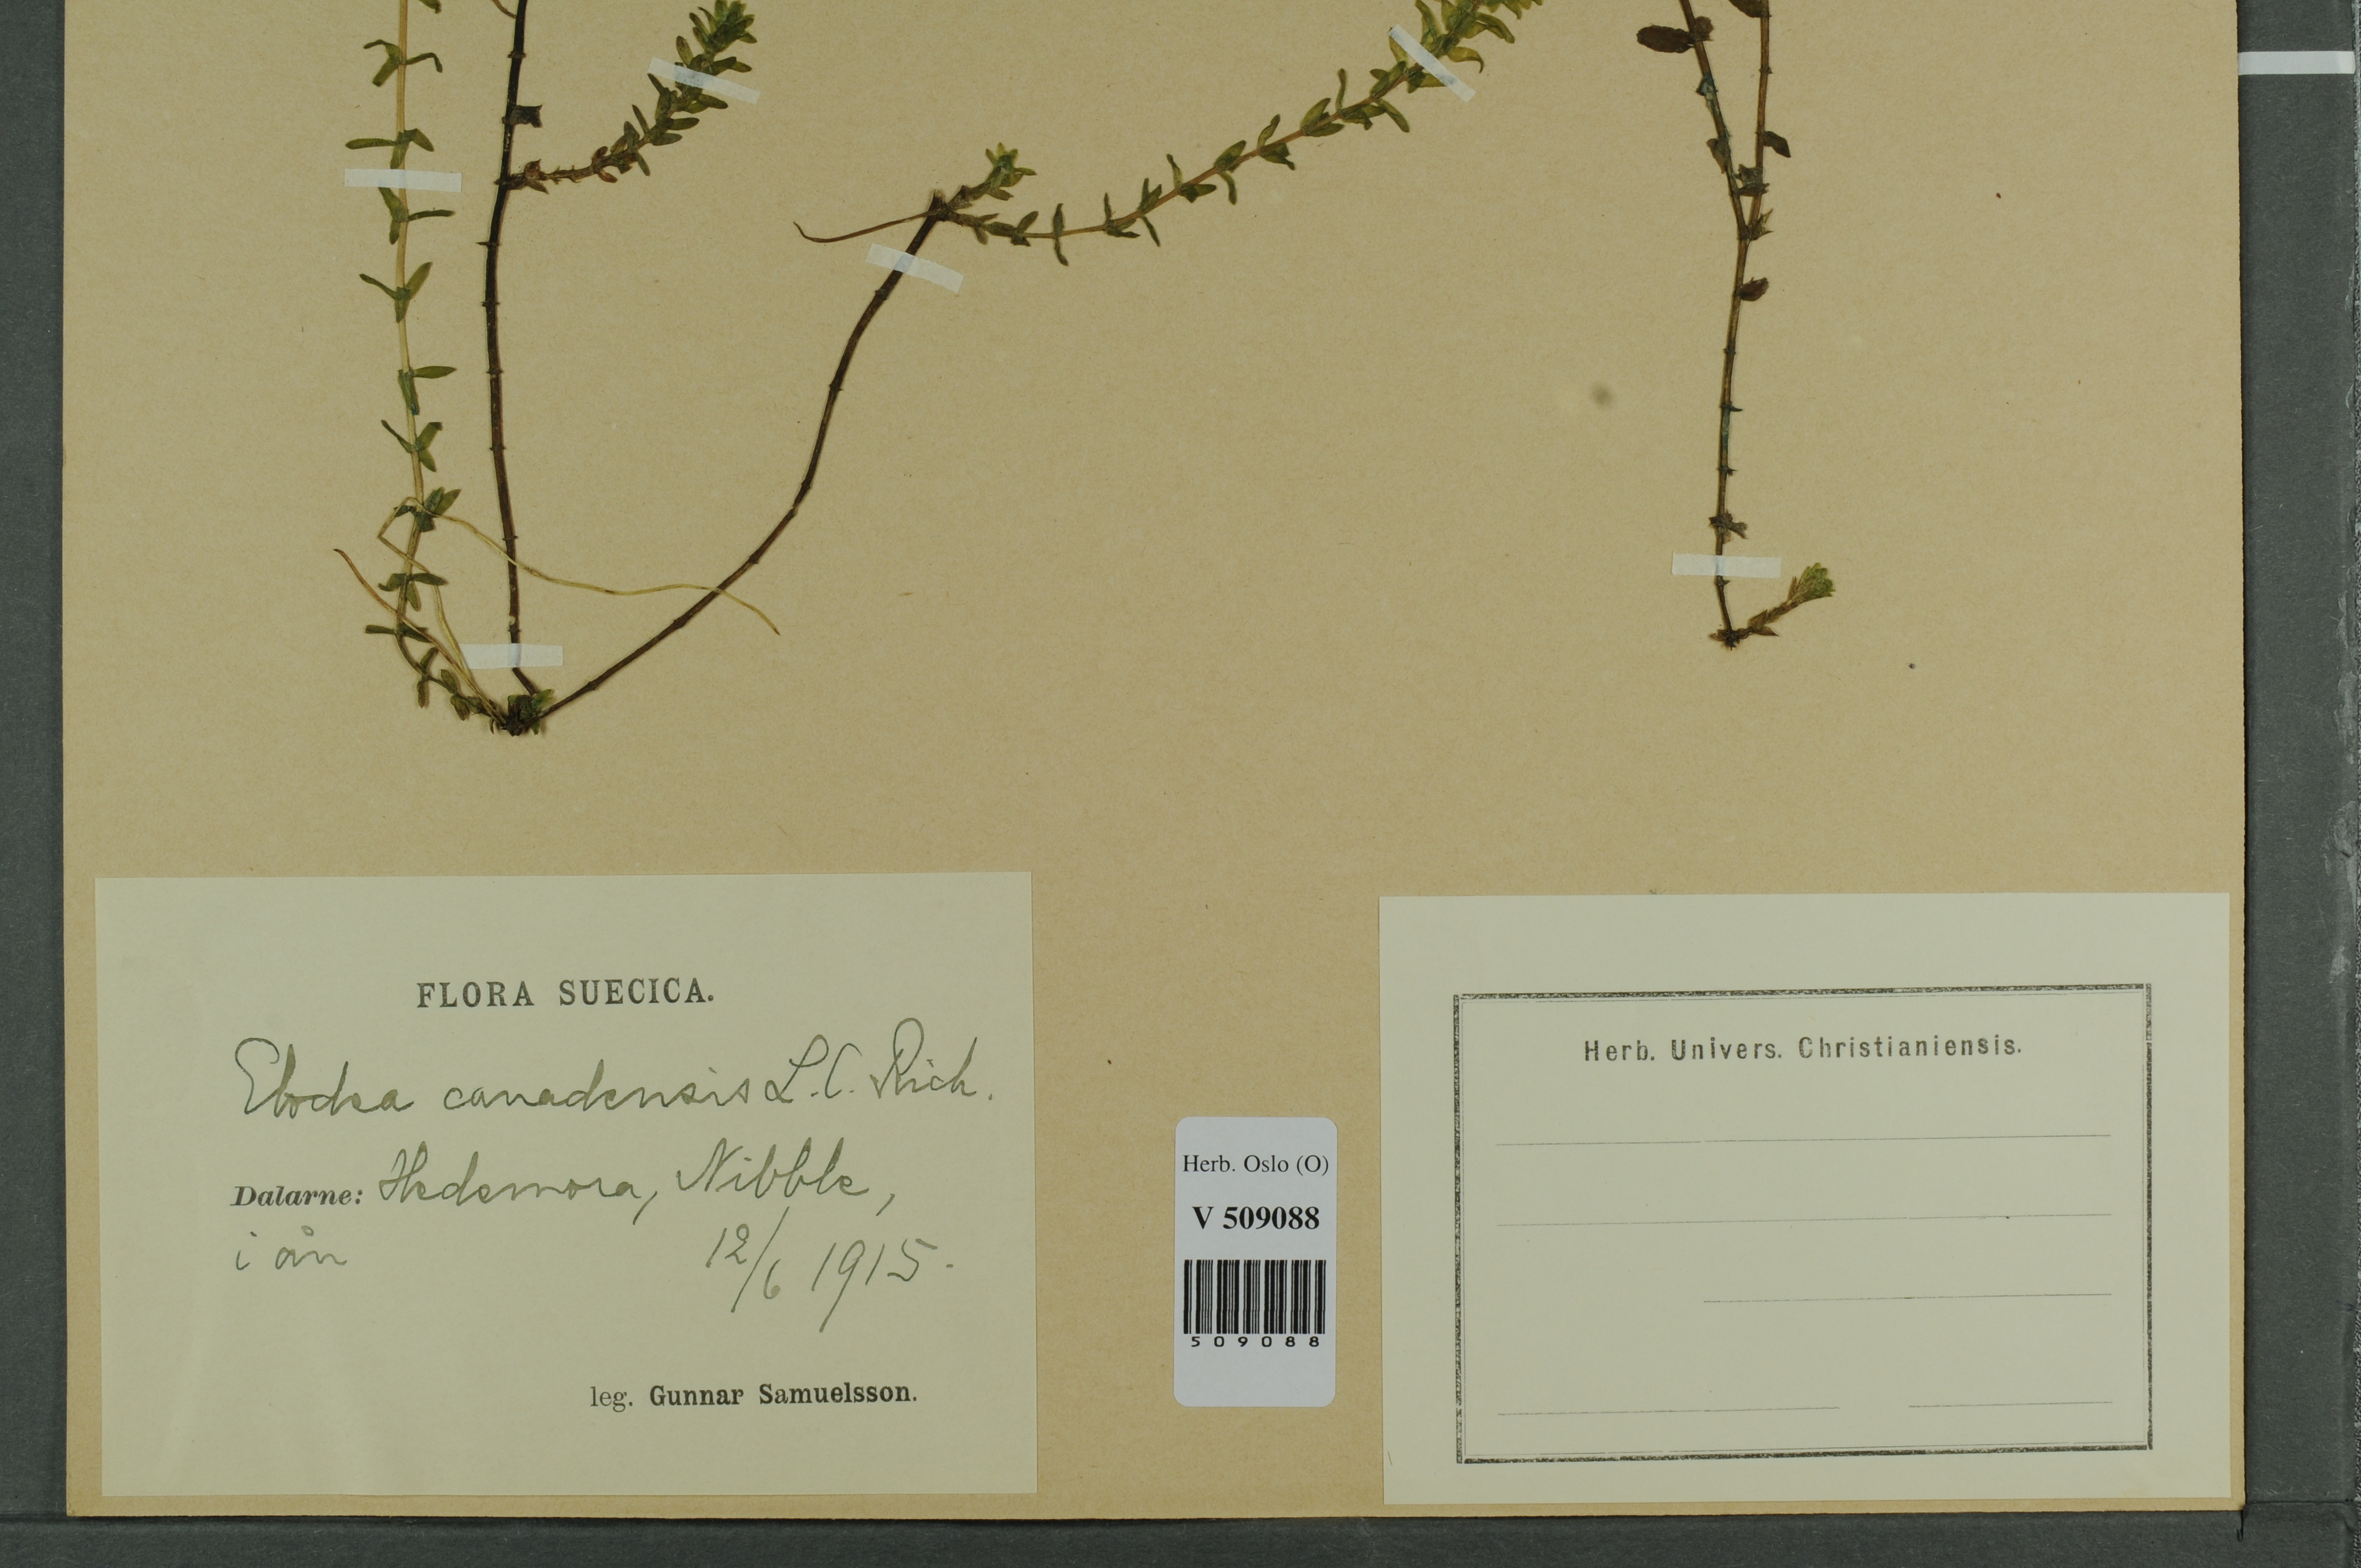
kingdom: Plantae
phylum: Tracheophyta
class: Liliopsida
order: Alismatales
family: Hydrocharitaceae
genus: Elodea
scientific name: Elodea canadensis
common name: Canadian waterweed
